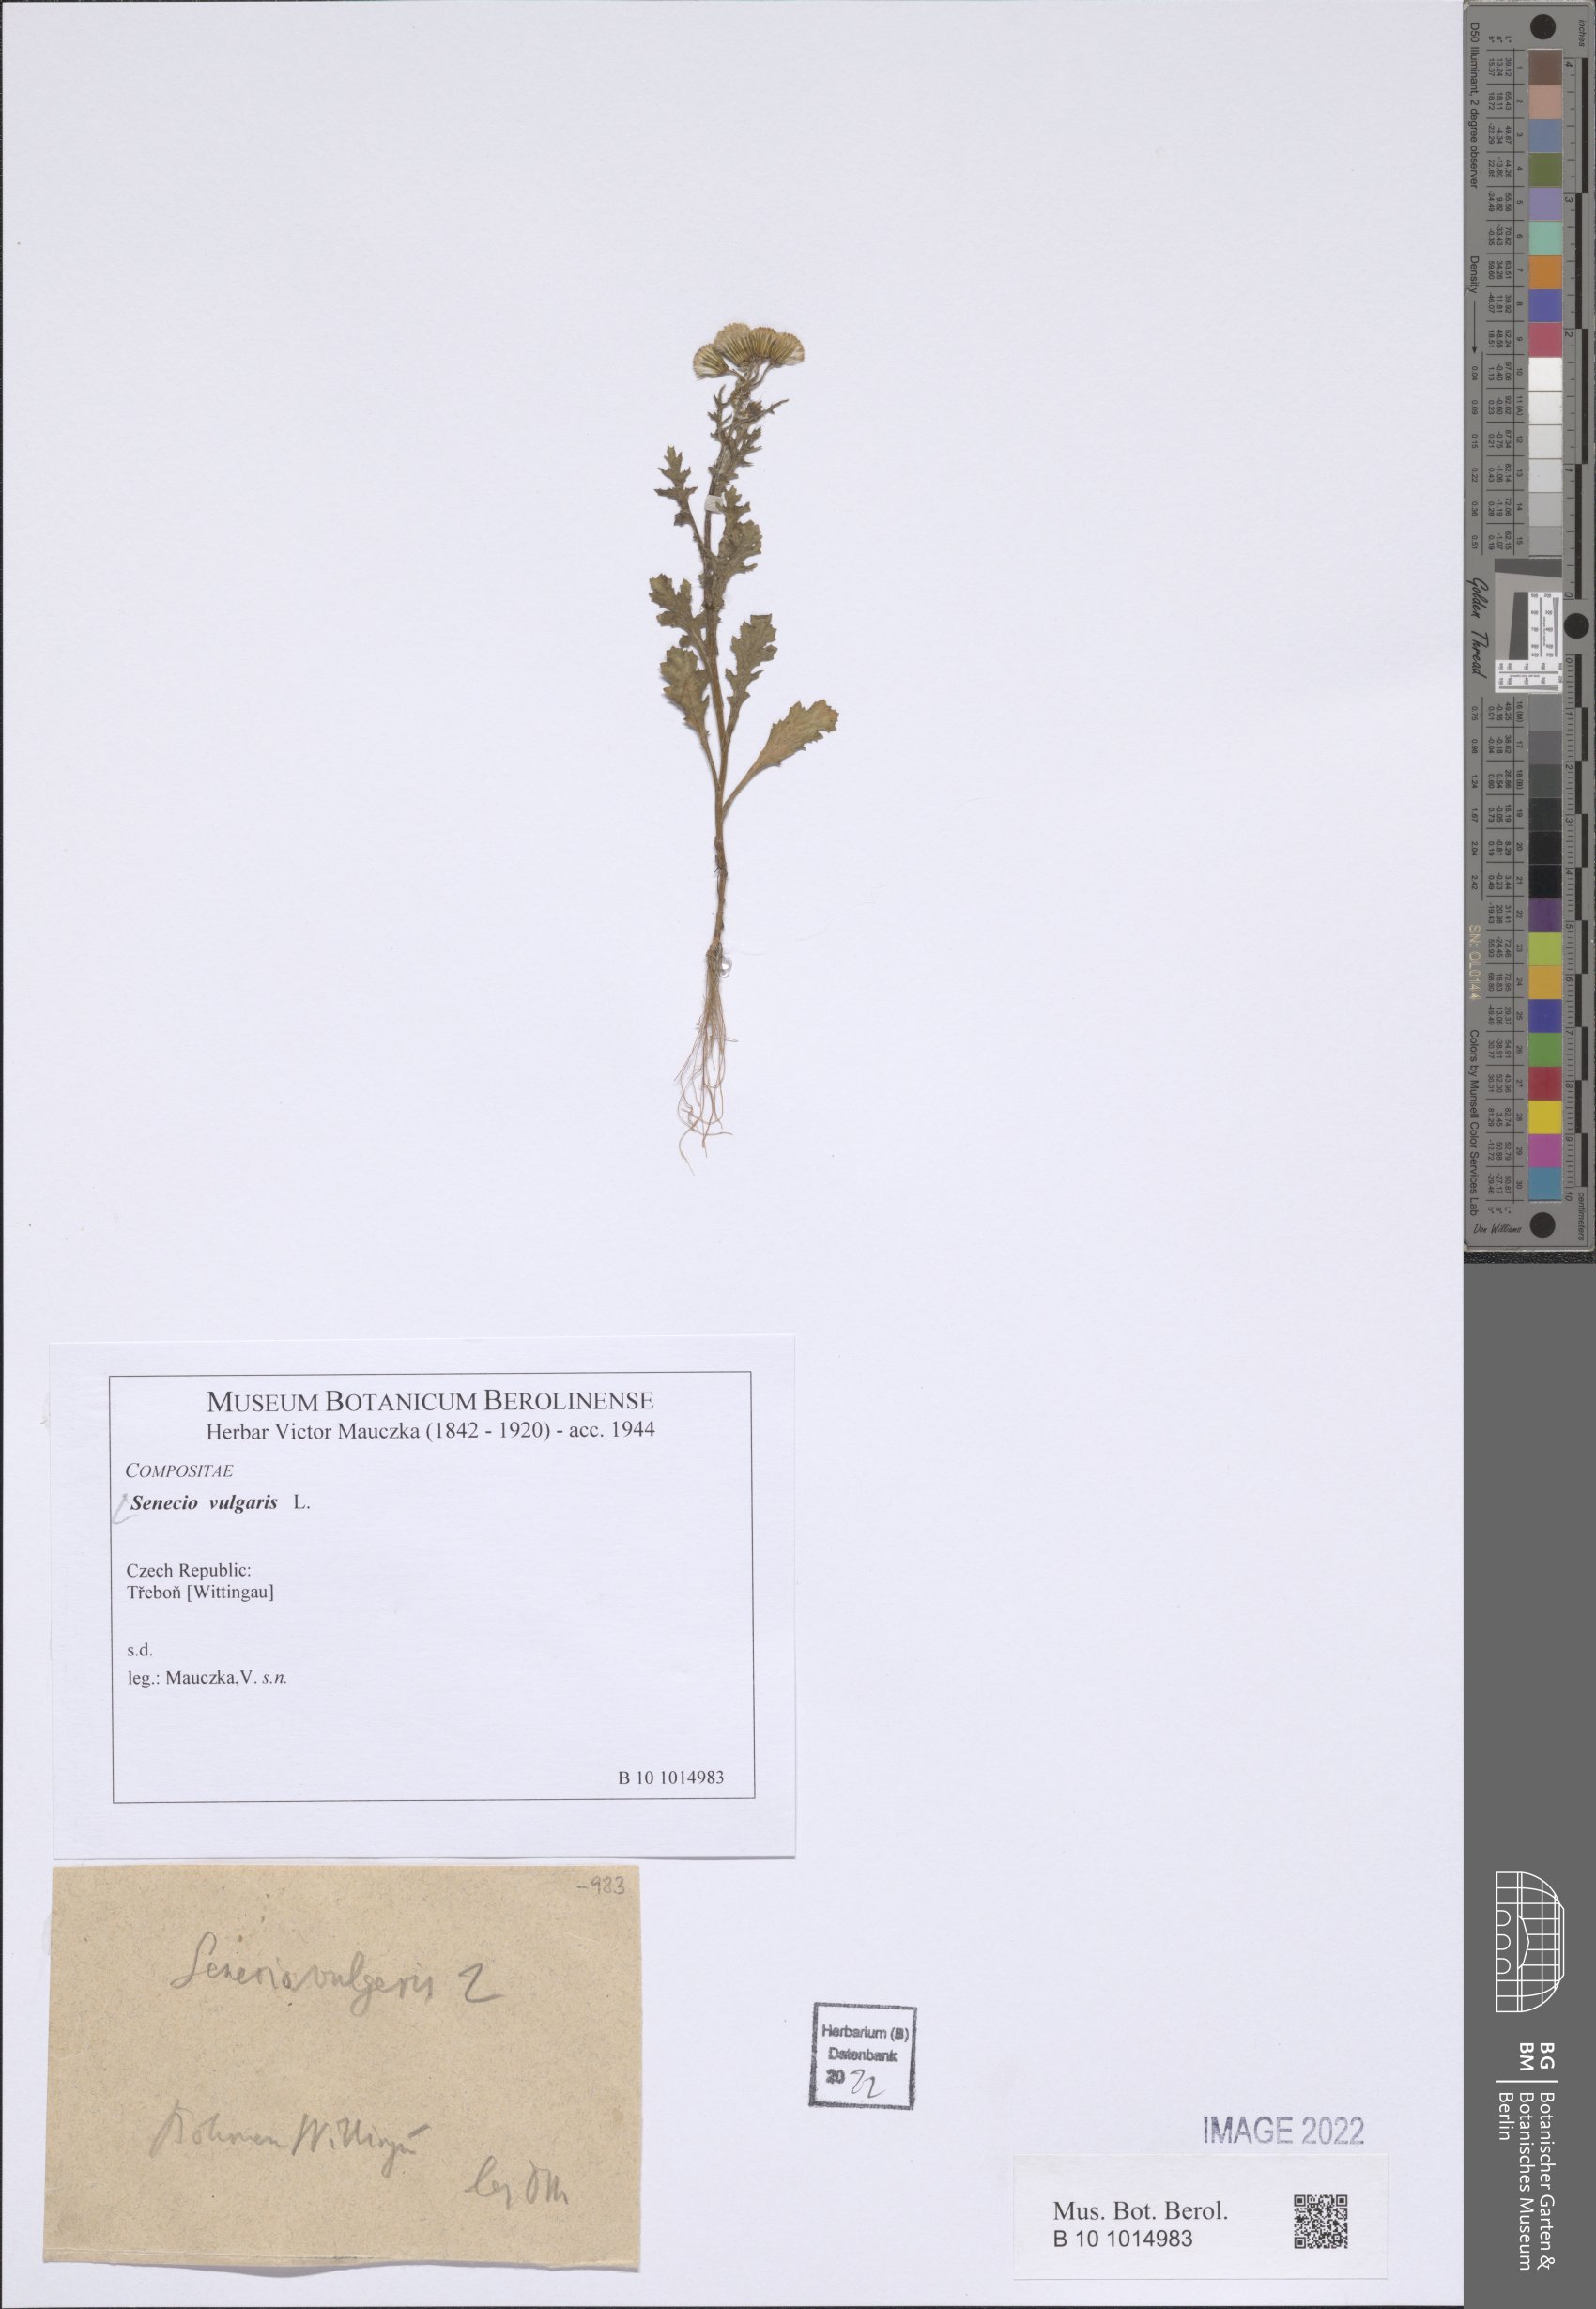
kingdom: Plantae
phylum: Tracheophyta
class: Magnoliopsida
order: Asterales
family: Asteraceae
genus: Senecio
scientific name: Senecio vulgaris
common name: Old-man-in-the-spring
